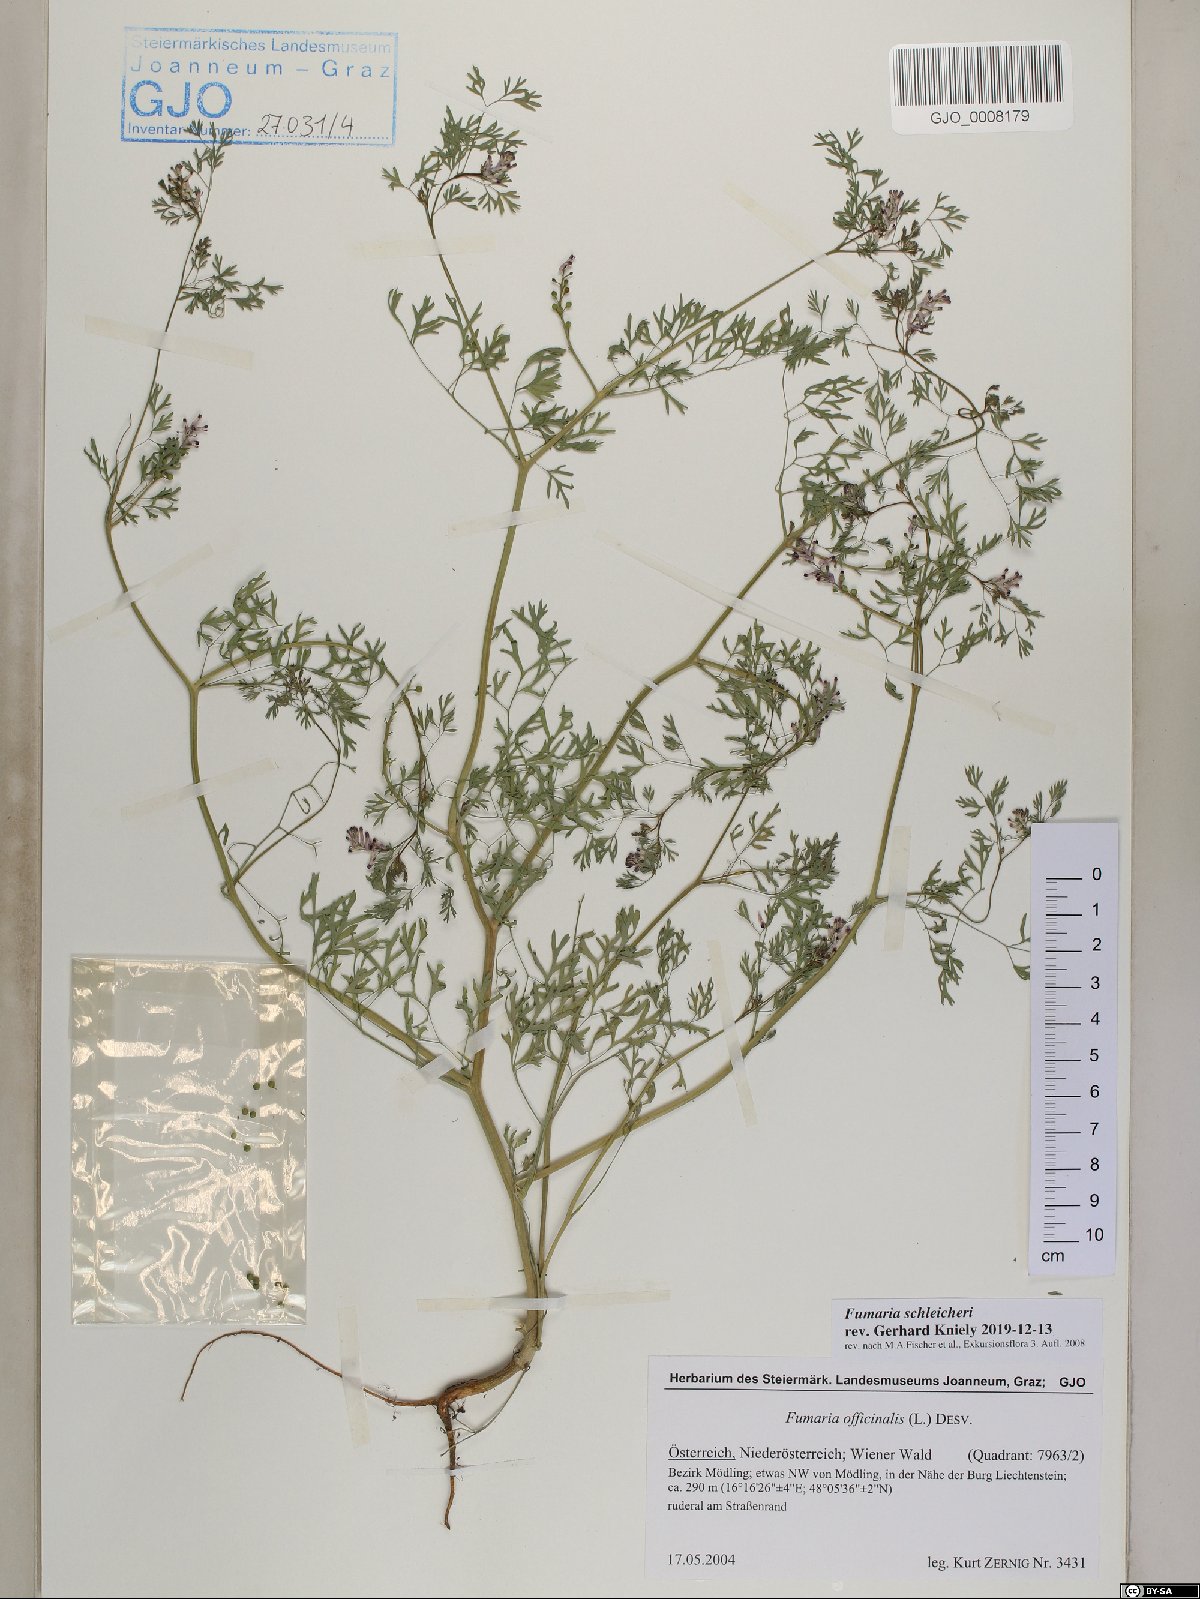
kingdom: Plantae
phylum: Tracheophyta
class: Magnoliopsida
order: Ranunculales
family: Papaveraceae
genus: Fumaria
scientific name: Fumaria schleicheri
